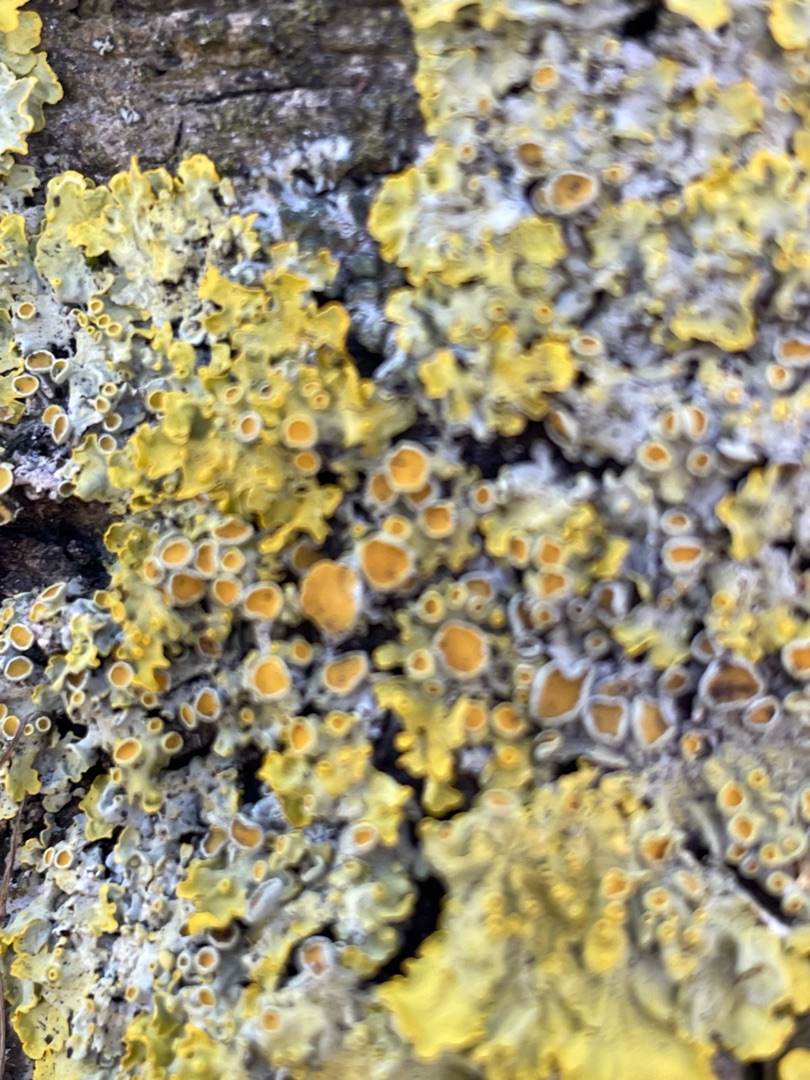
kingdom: Fungi
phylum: Ascomycota
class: Lecanoromycetes
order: Teloschistales
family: Teloschistaceae
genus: Xanthoria
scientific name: Xanthoria parietina
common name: Almindelig væggelav
